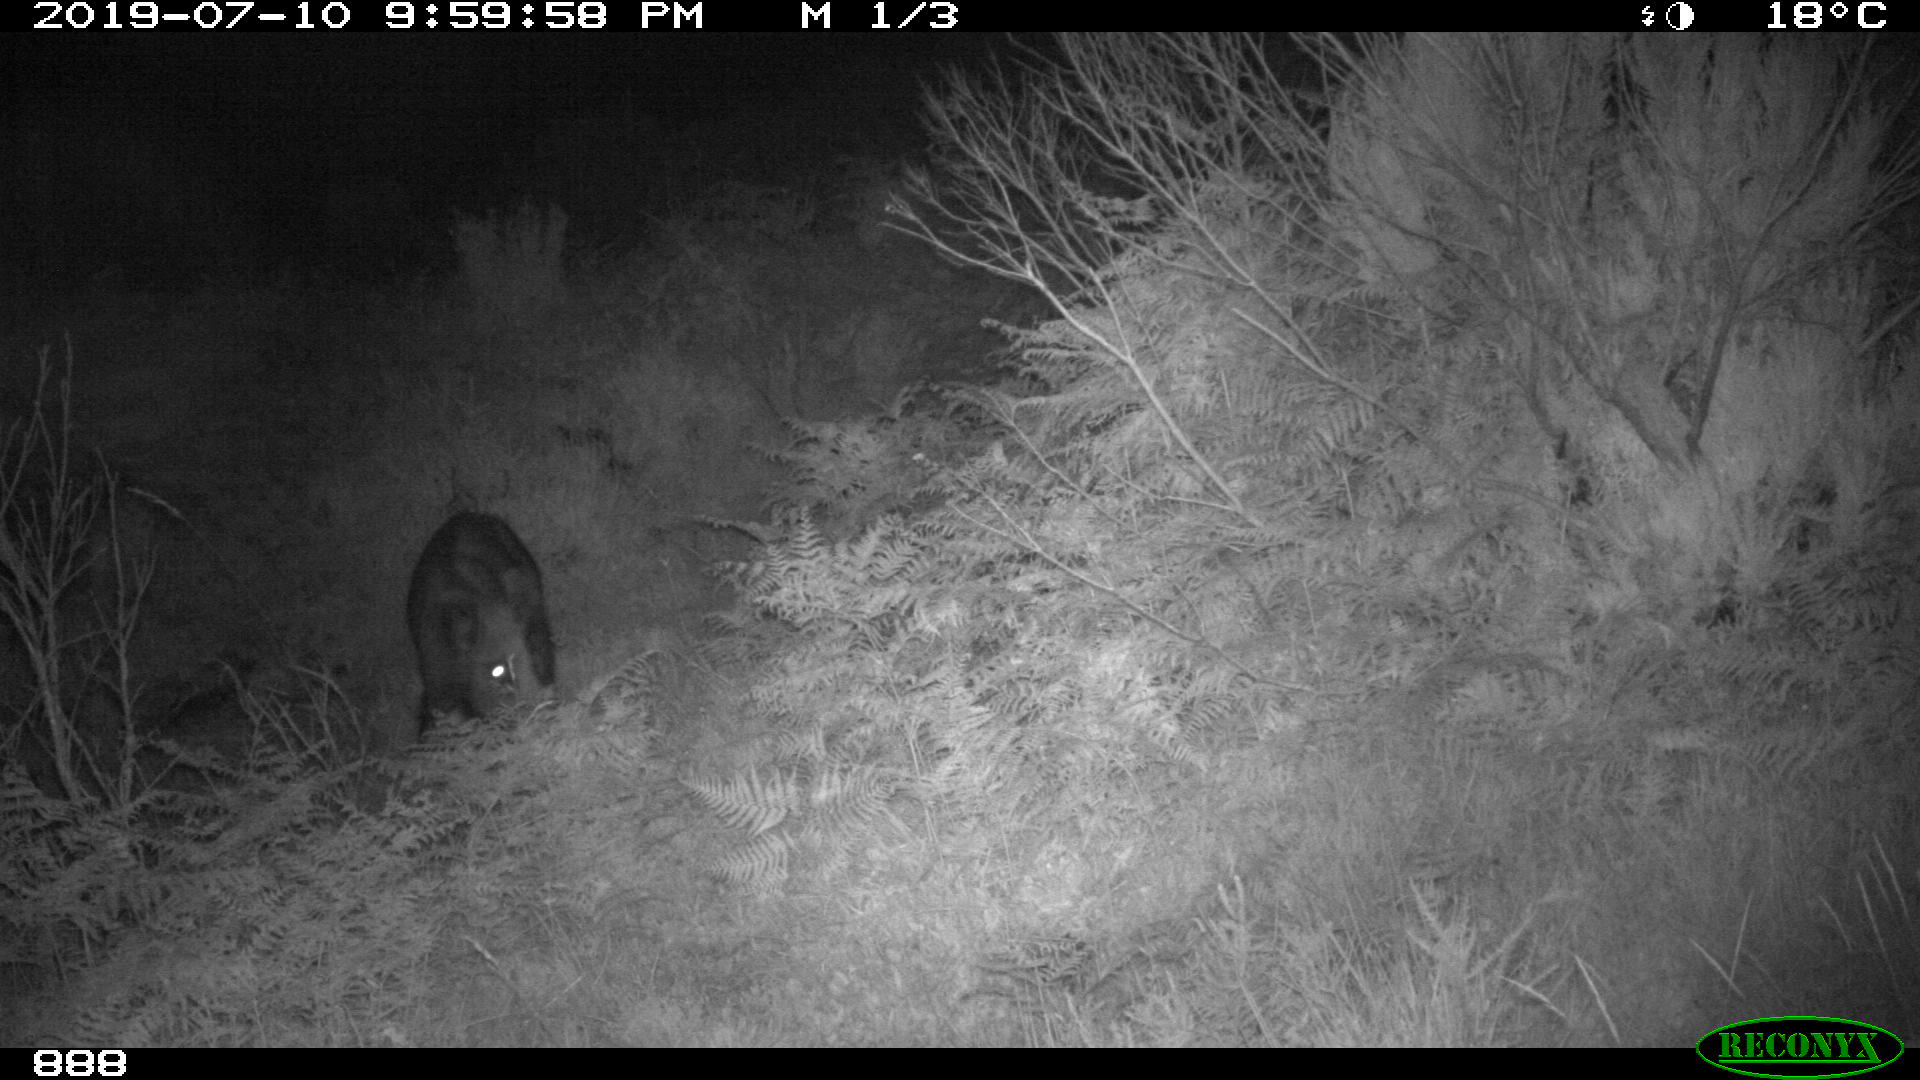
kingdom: Animalia
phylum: Chordata
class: Mammalia
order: Artiodactyla
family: Suidae
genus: Sus
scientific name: Sus scrofa
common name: Wild boar
